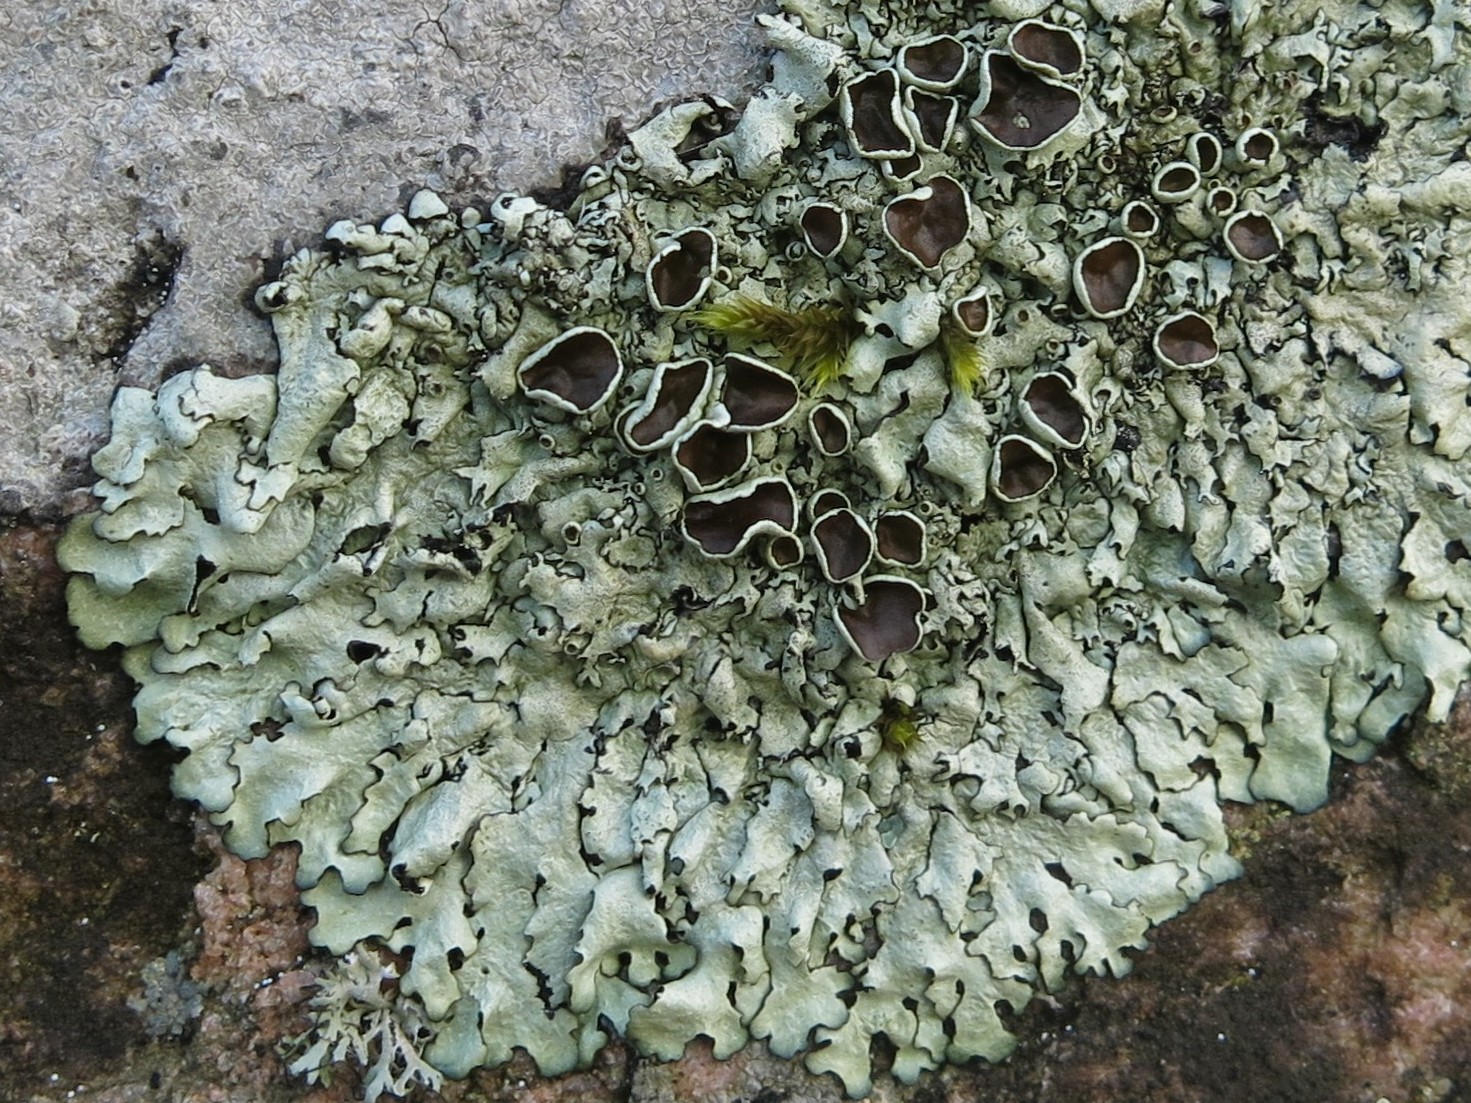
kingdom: Fungi
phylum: Ascomycota
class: Lecanoromycetes
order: Lecanorales
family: Parmeliaceae
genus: Xanthoparmelia
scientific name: Xanthoparmelia stenophylla
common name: Shingled rock shield
